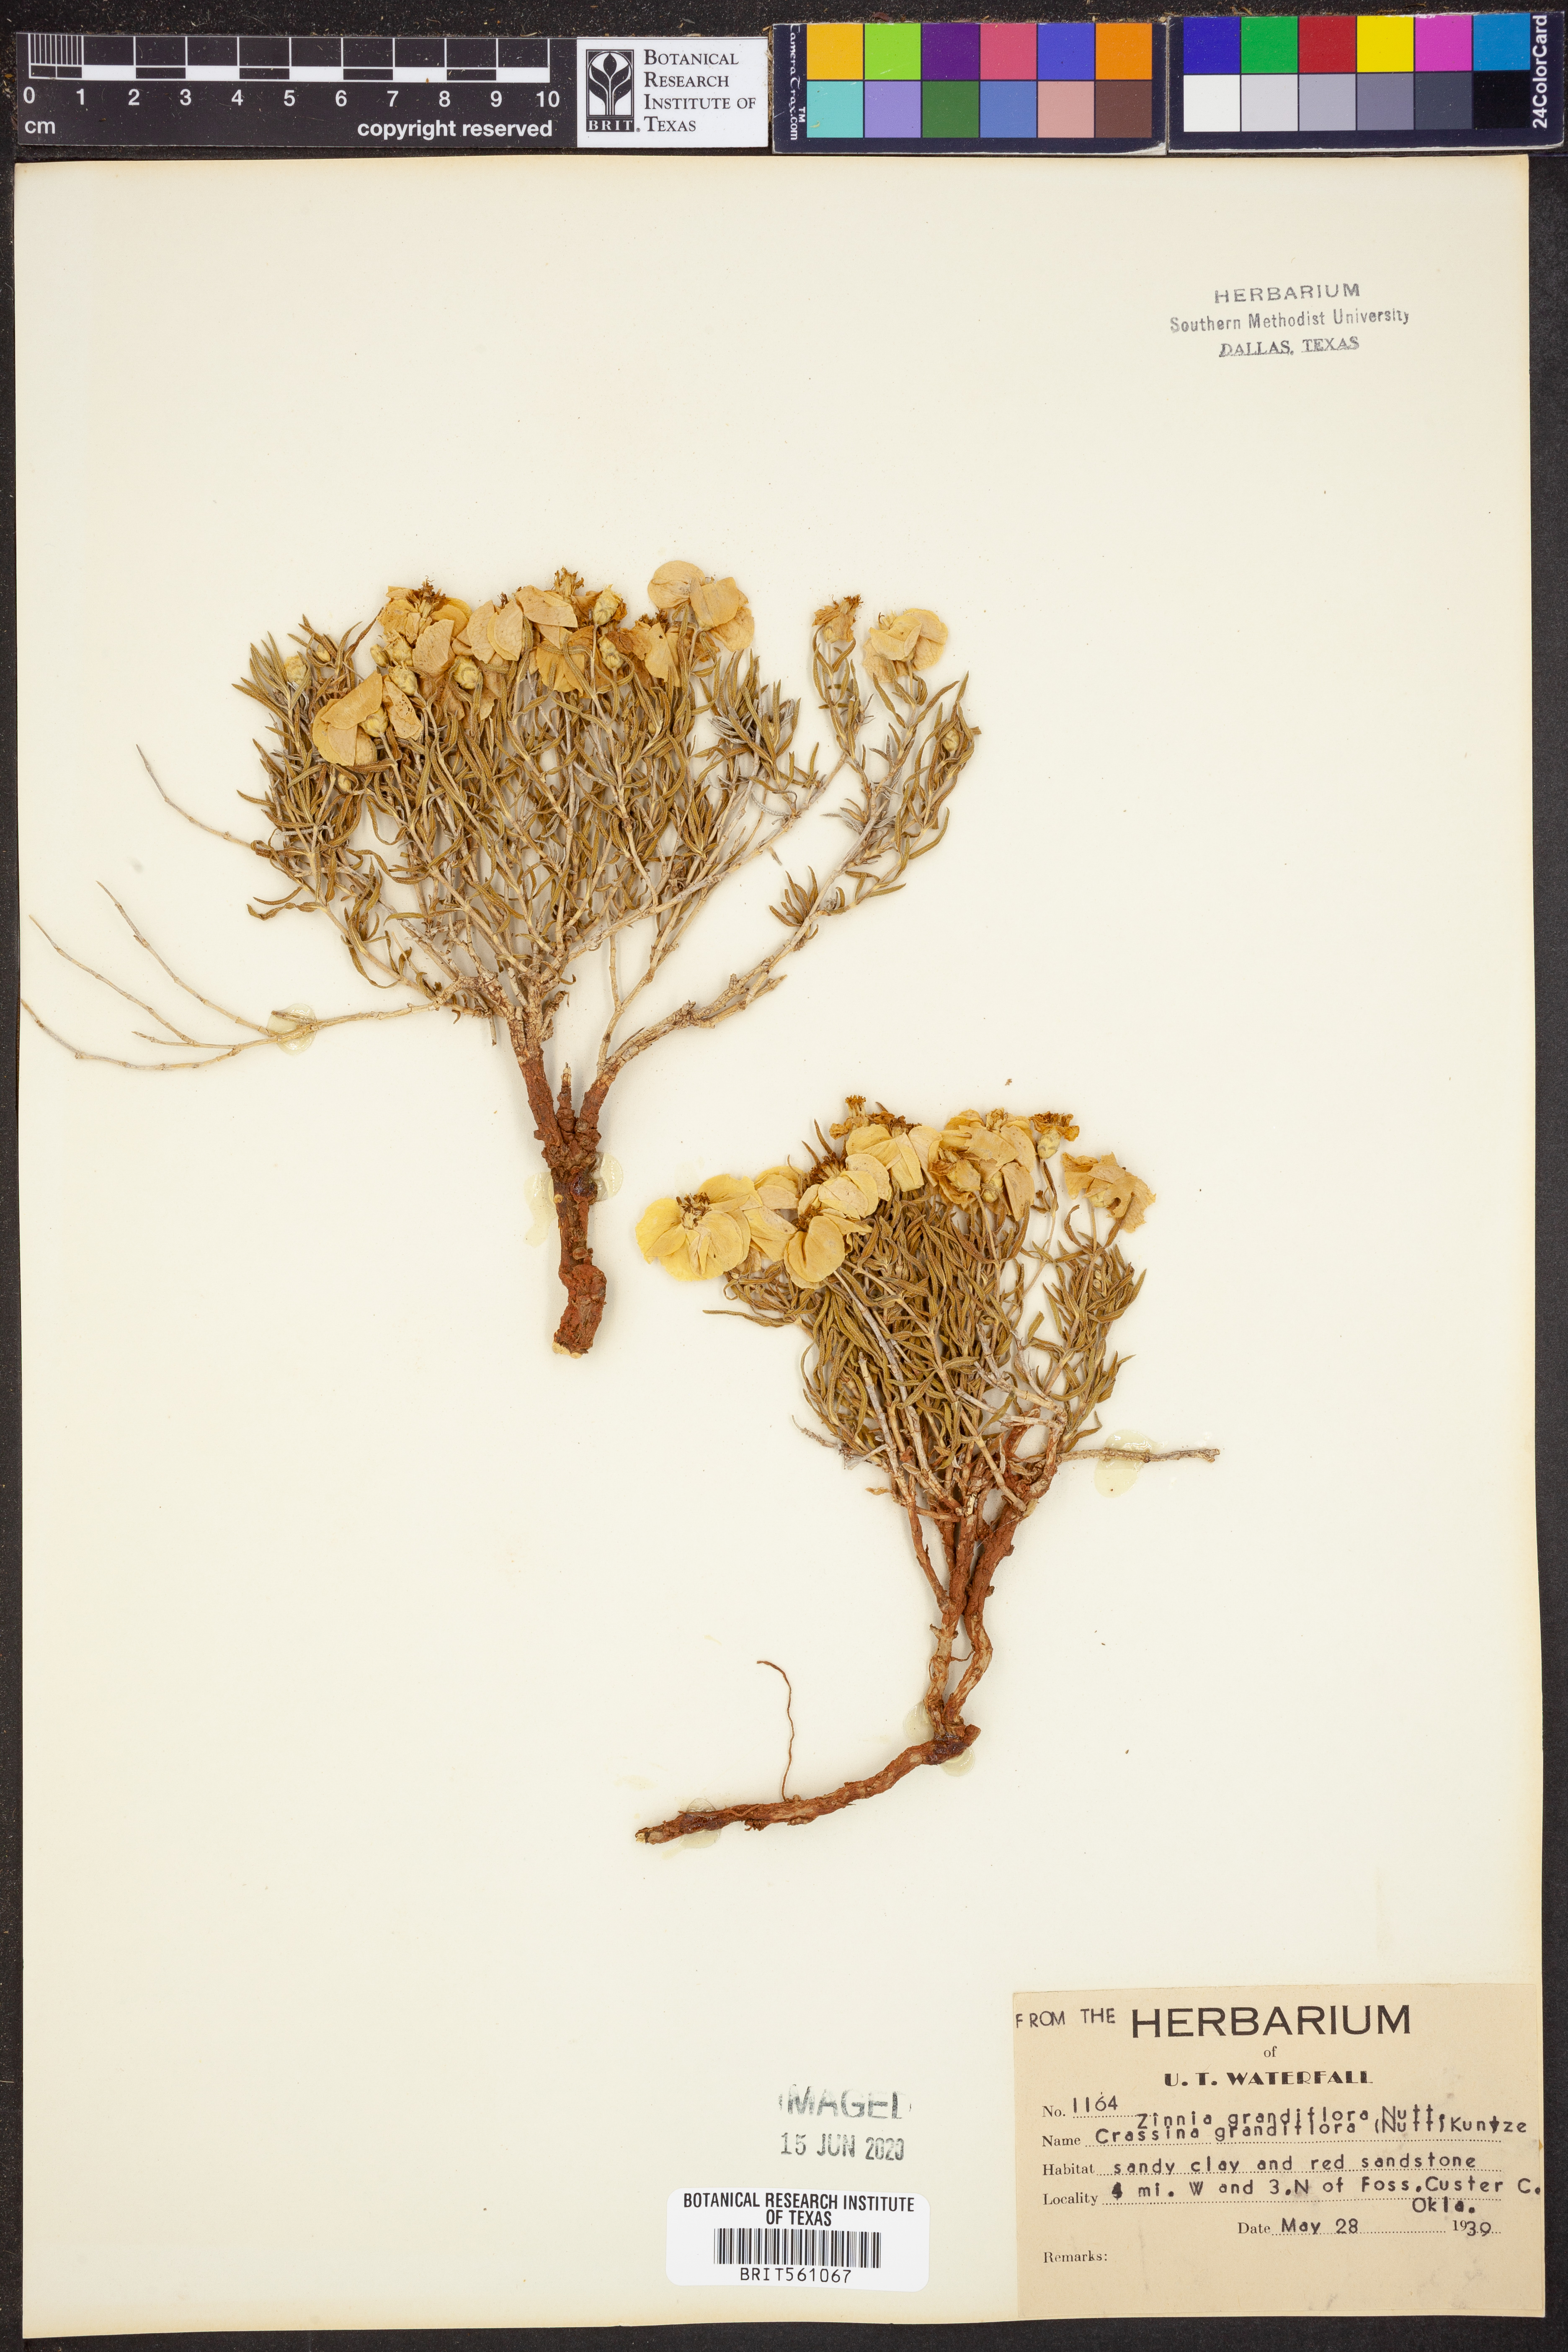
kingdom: Plantae
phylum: Tracheophyta
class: Magnoliopsida
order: Asterales
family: Asteraceae
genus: Zinnia
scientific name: Zinnia grandiflora
